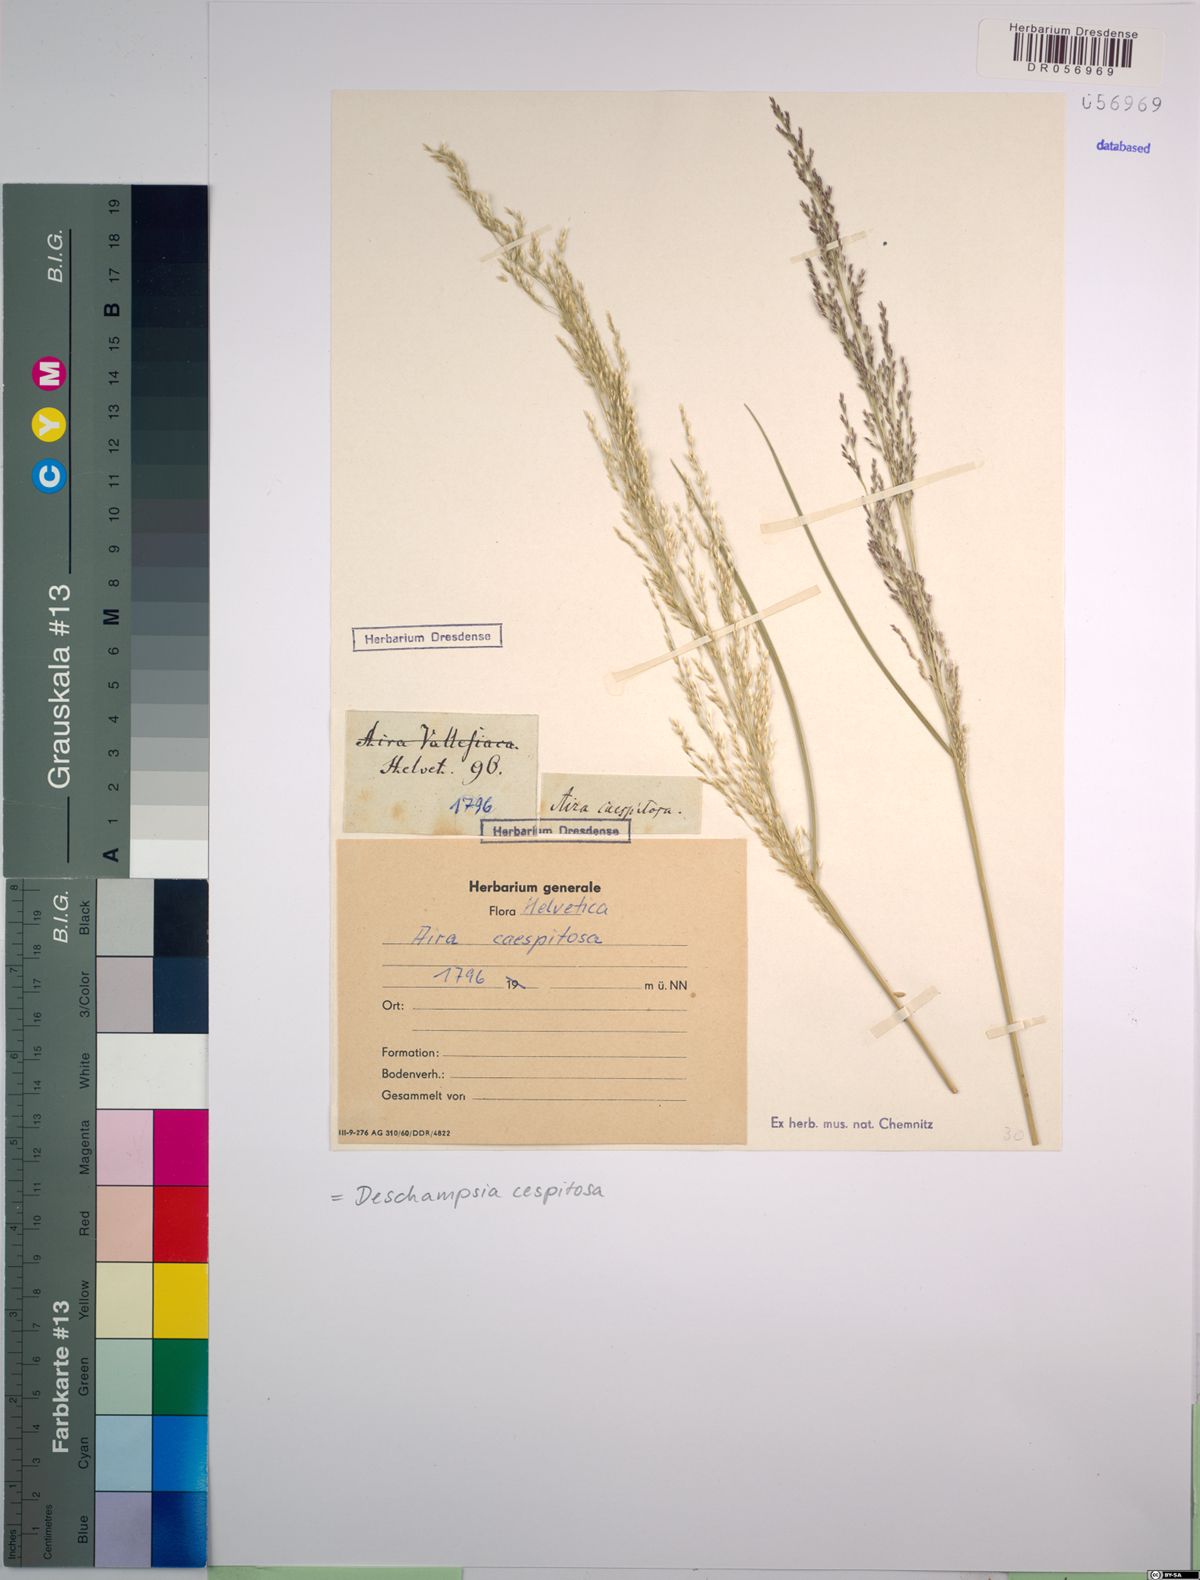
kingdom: Plantae
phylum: Tracheophyta
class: Liliopsida
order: Poales
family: Poaceae
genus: Deschampsia
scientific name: Deschampsia cespitosa
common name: Tufted hair-grass
